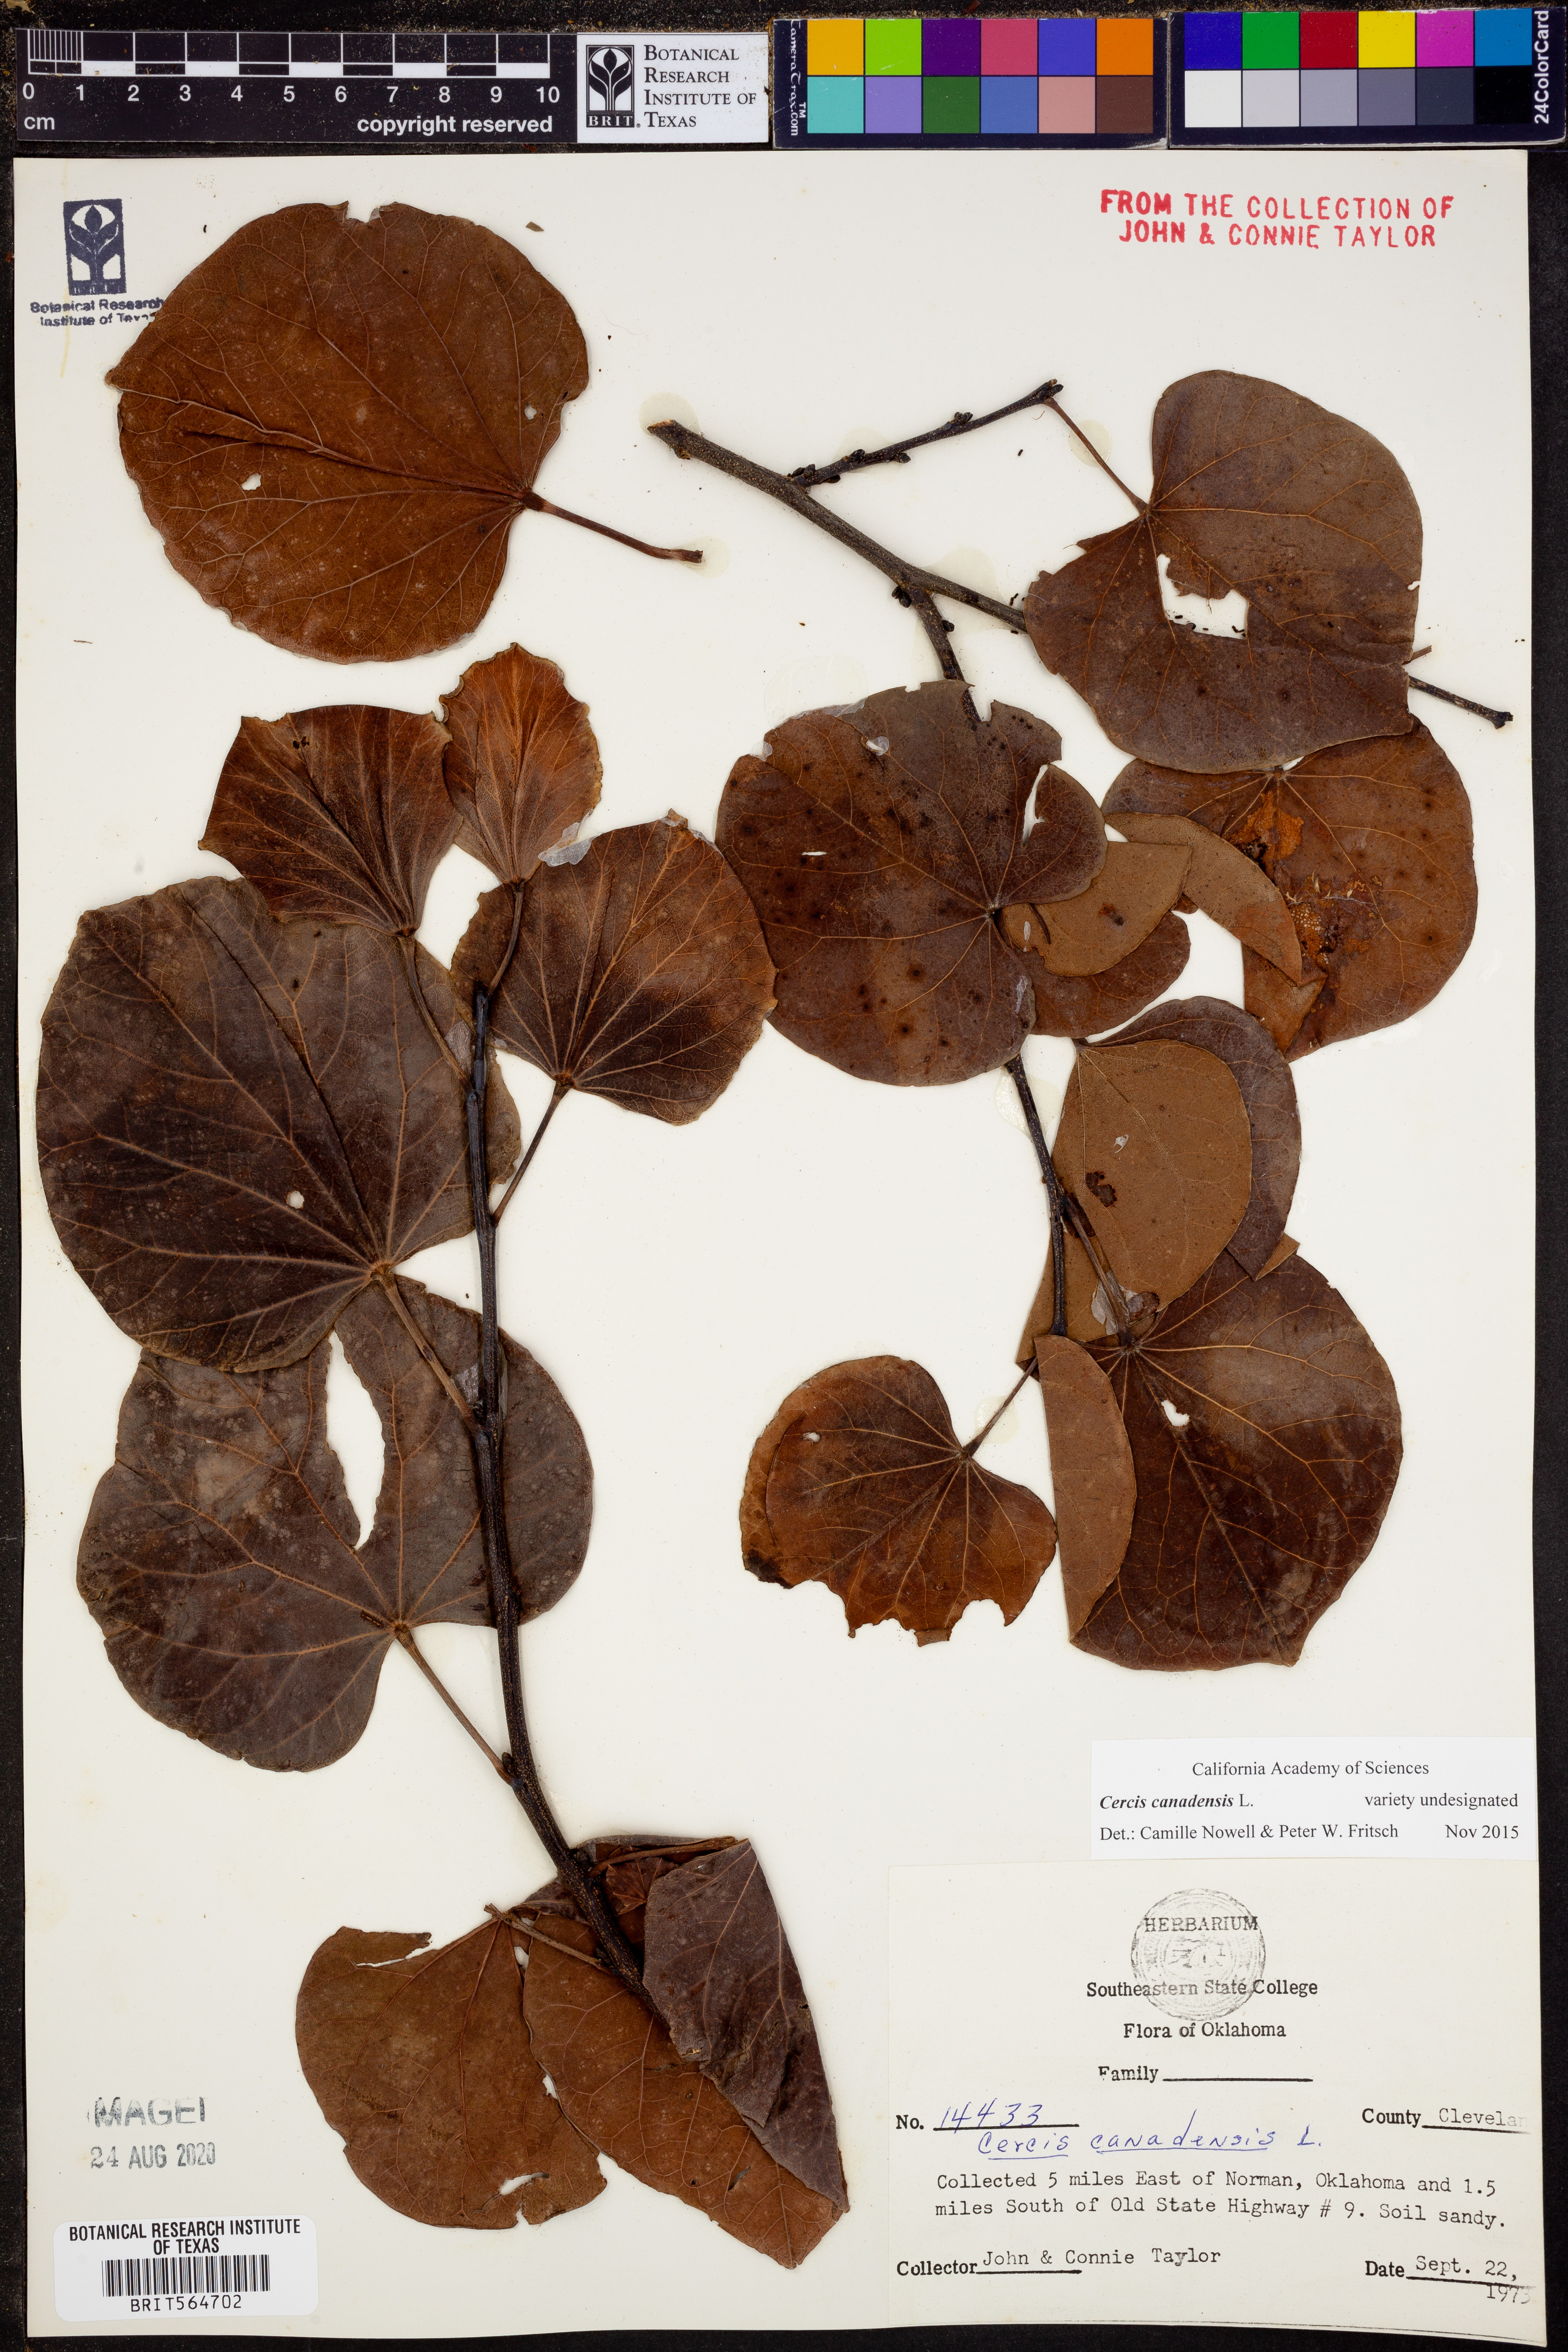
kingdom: Plantae
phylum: Tracheophyta
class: Magnoliopsida
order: Fabales
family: Fabaceae
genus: Cercis
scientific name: Cercis canadensis
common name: Eastern redbud
